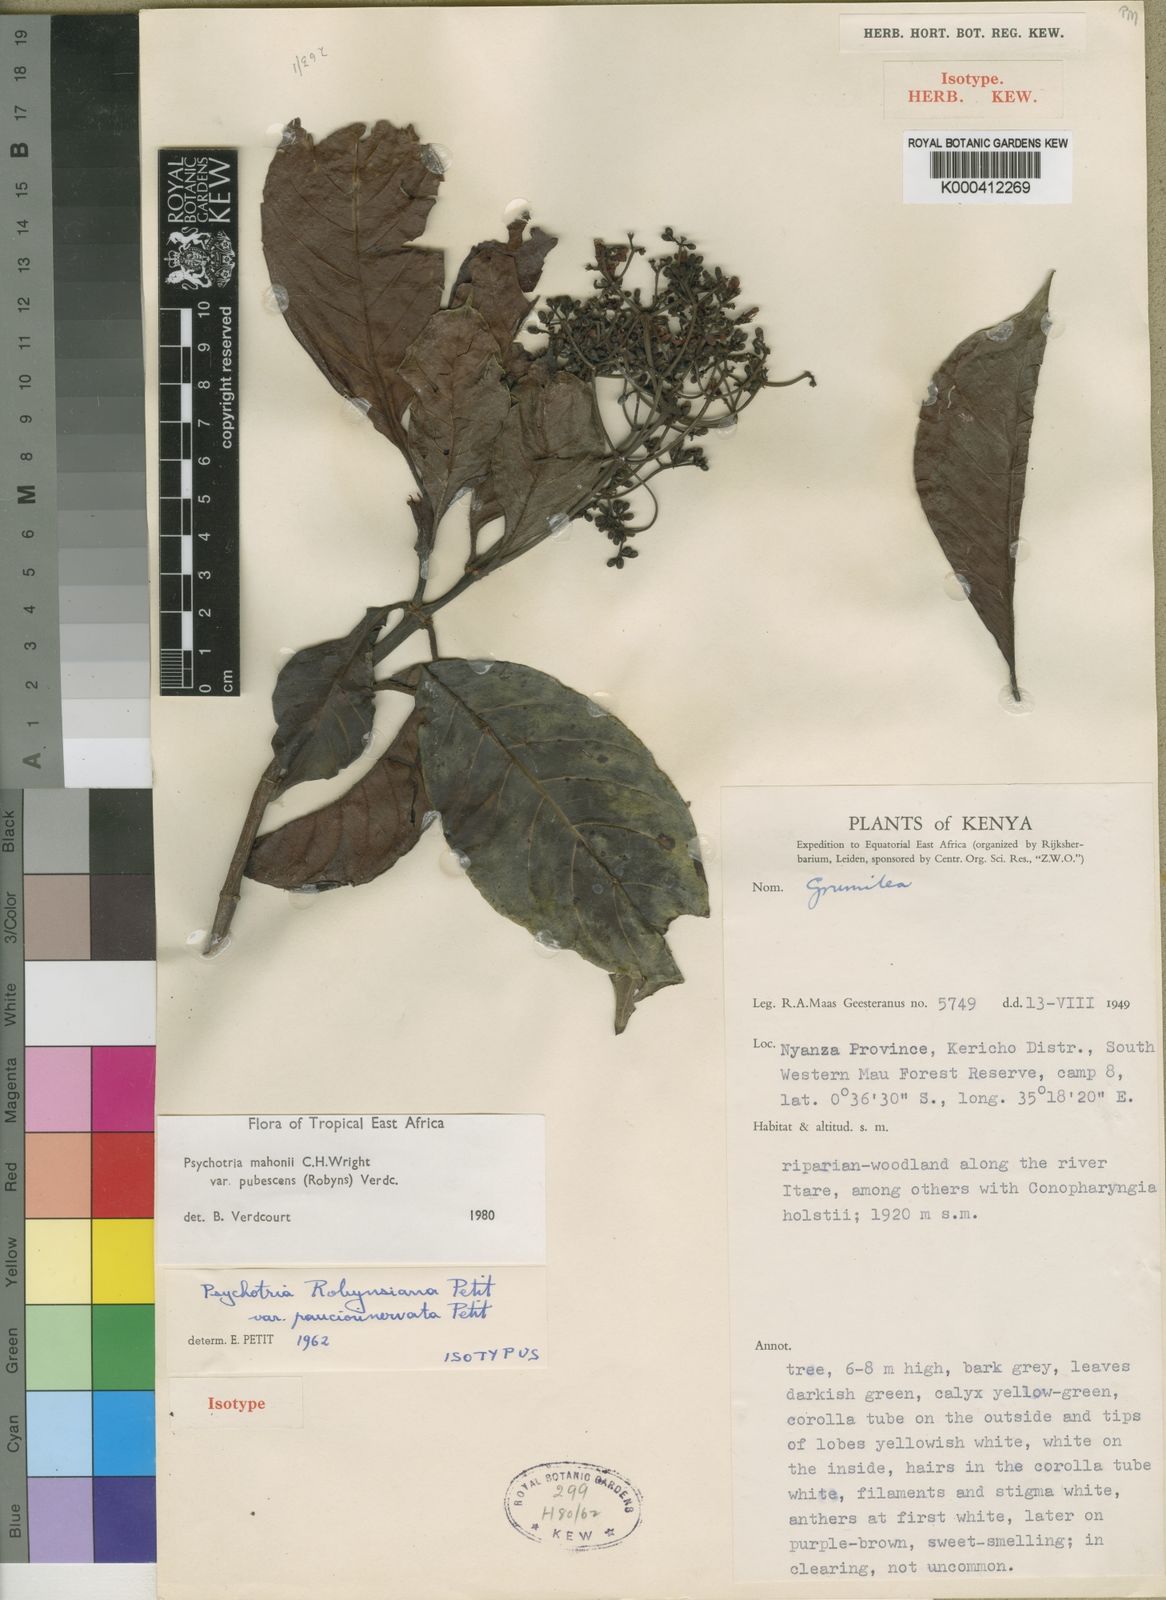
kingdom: Plantae
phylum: Tracheophyta
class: Magnoliopsida
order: Gentianales
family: Rubiaceae
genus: Psychotria
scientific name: Psychotria mahonii
